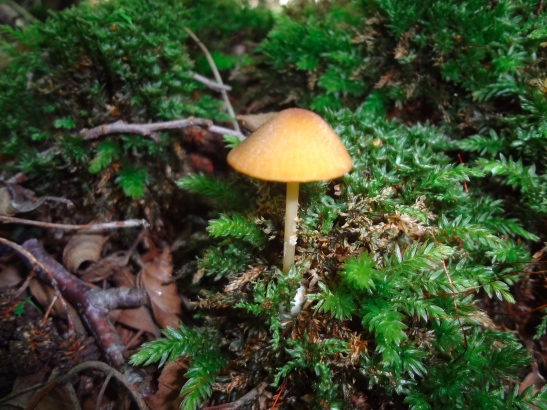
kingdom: Fungi
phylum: Basidiomycota
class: Agaricomycetes
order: Agaricales
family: Entolomataceae
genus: Entoloma
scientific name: Entoloma formosum
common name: brungul rødblad
